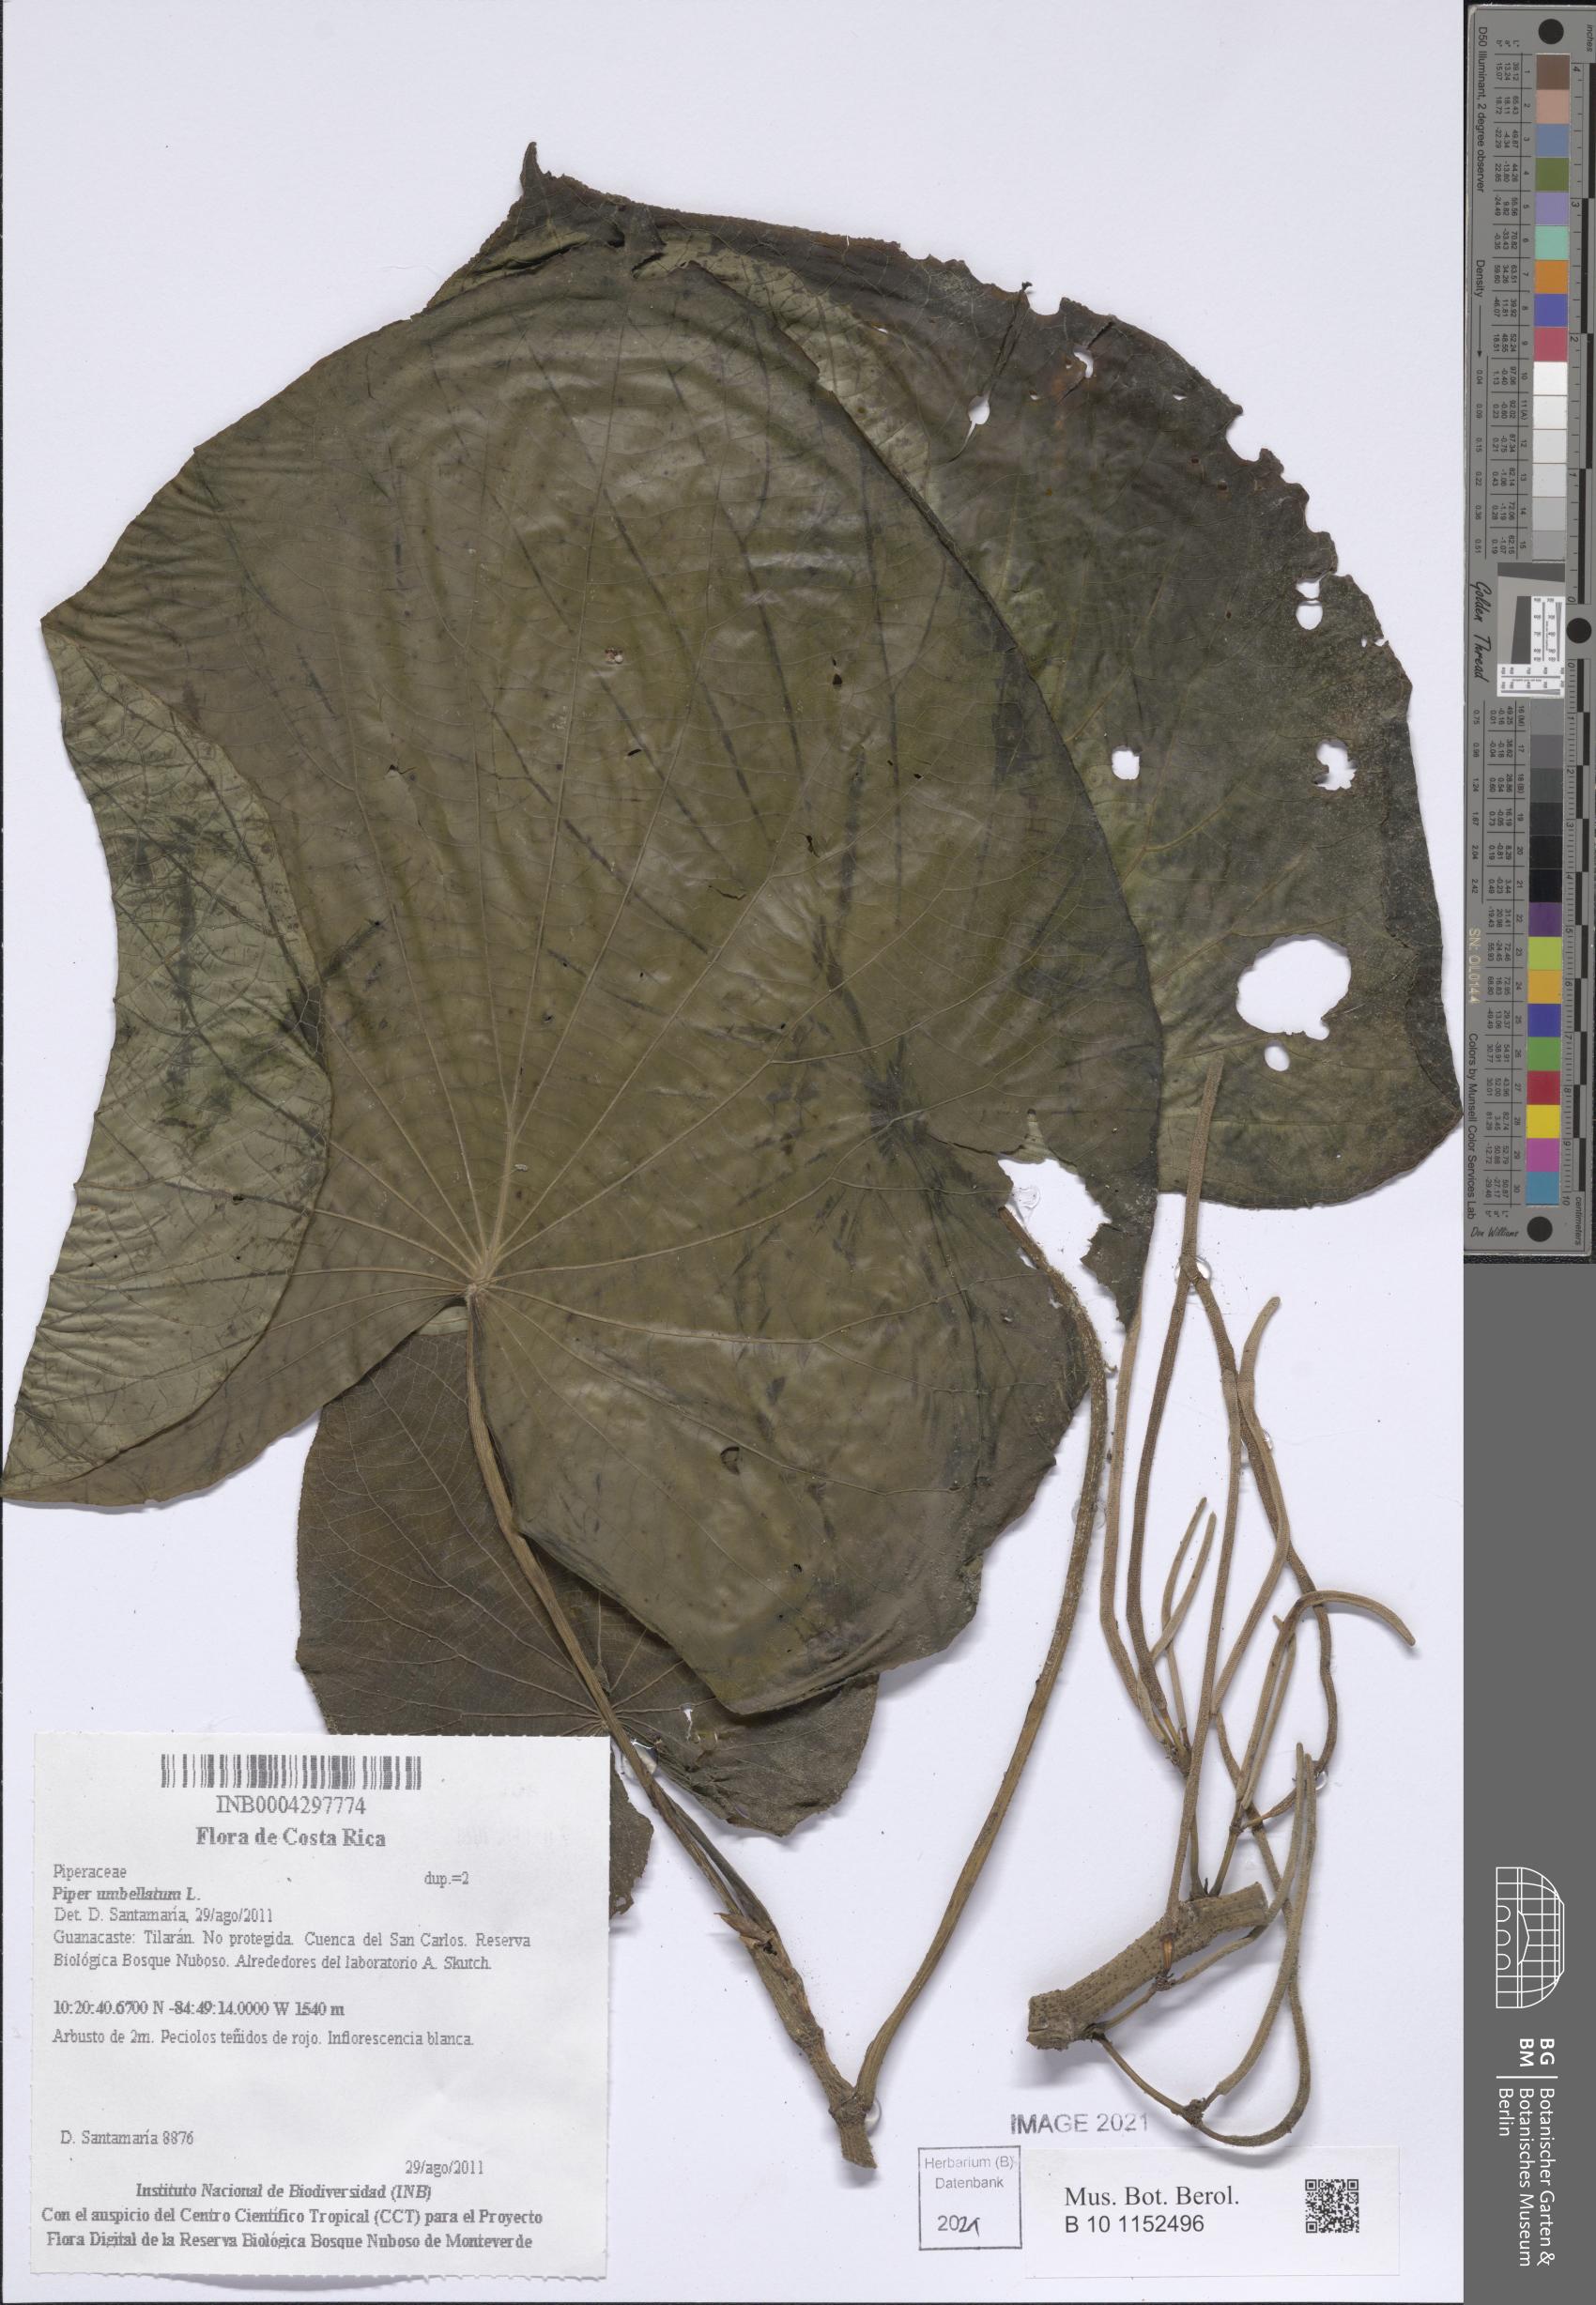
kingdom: Plantae
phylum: Tracheophyta
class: Magnoliopsida
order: Piperales
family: Piperaceae
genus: Piper
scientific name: Piper umbellatum
